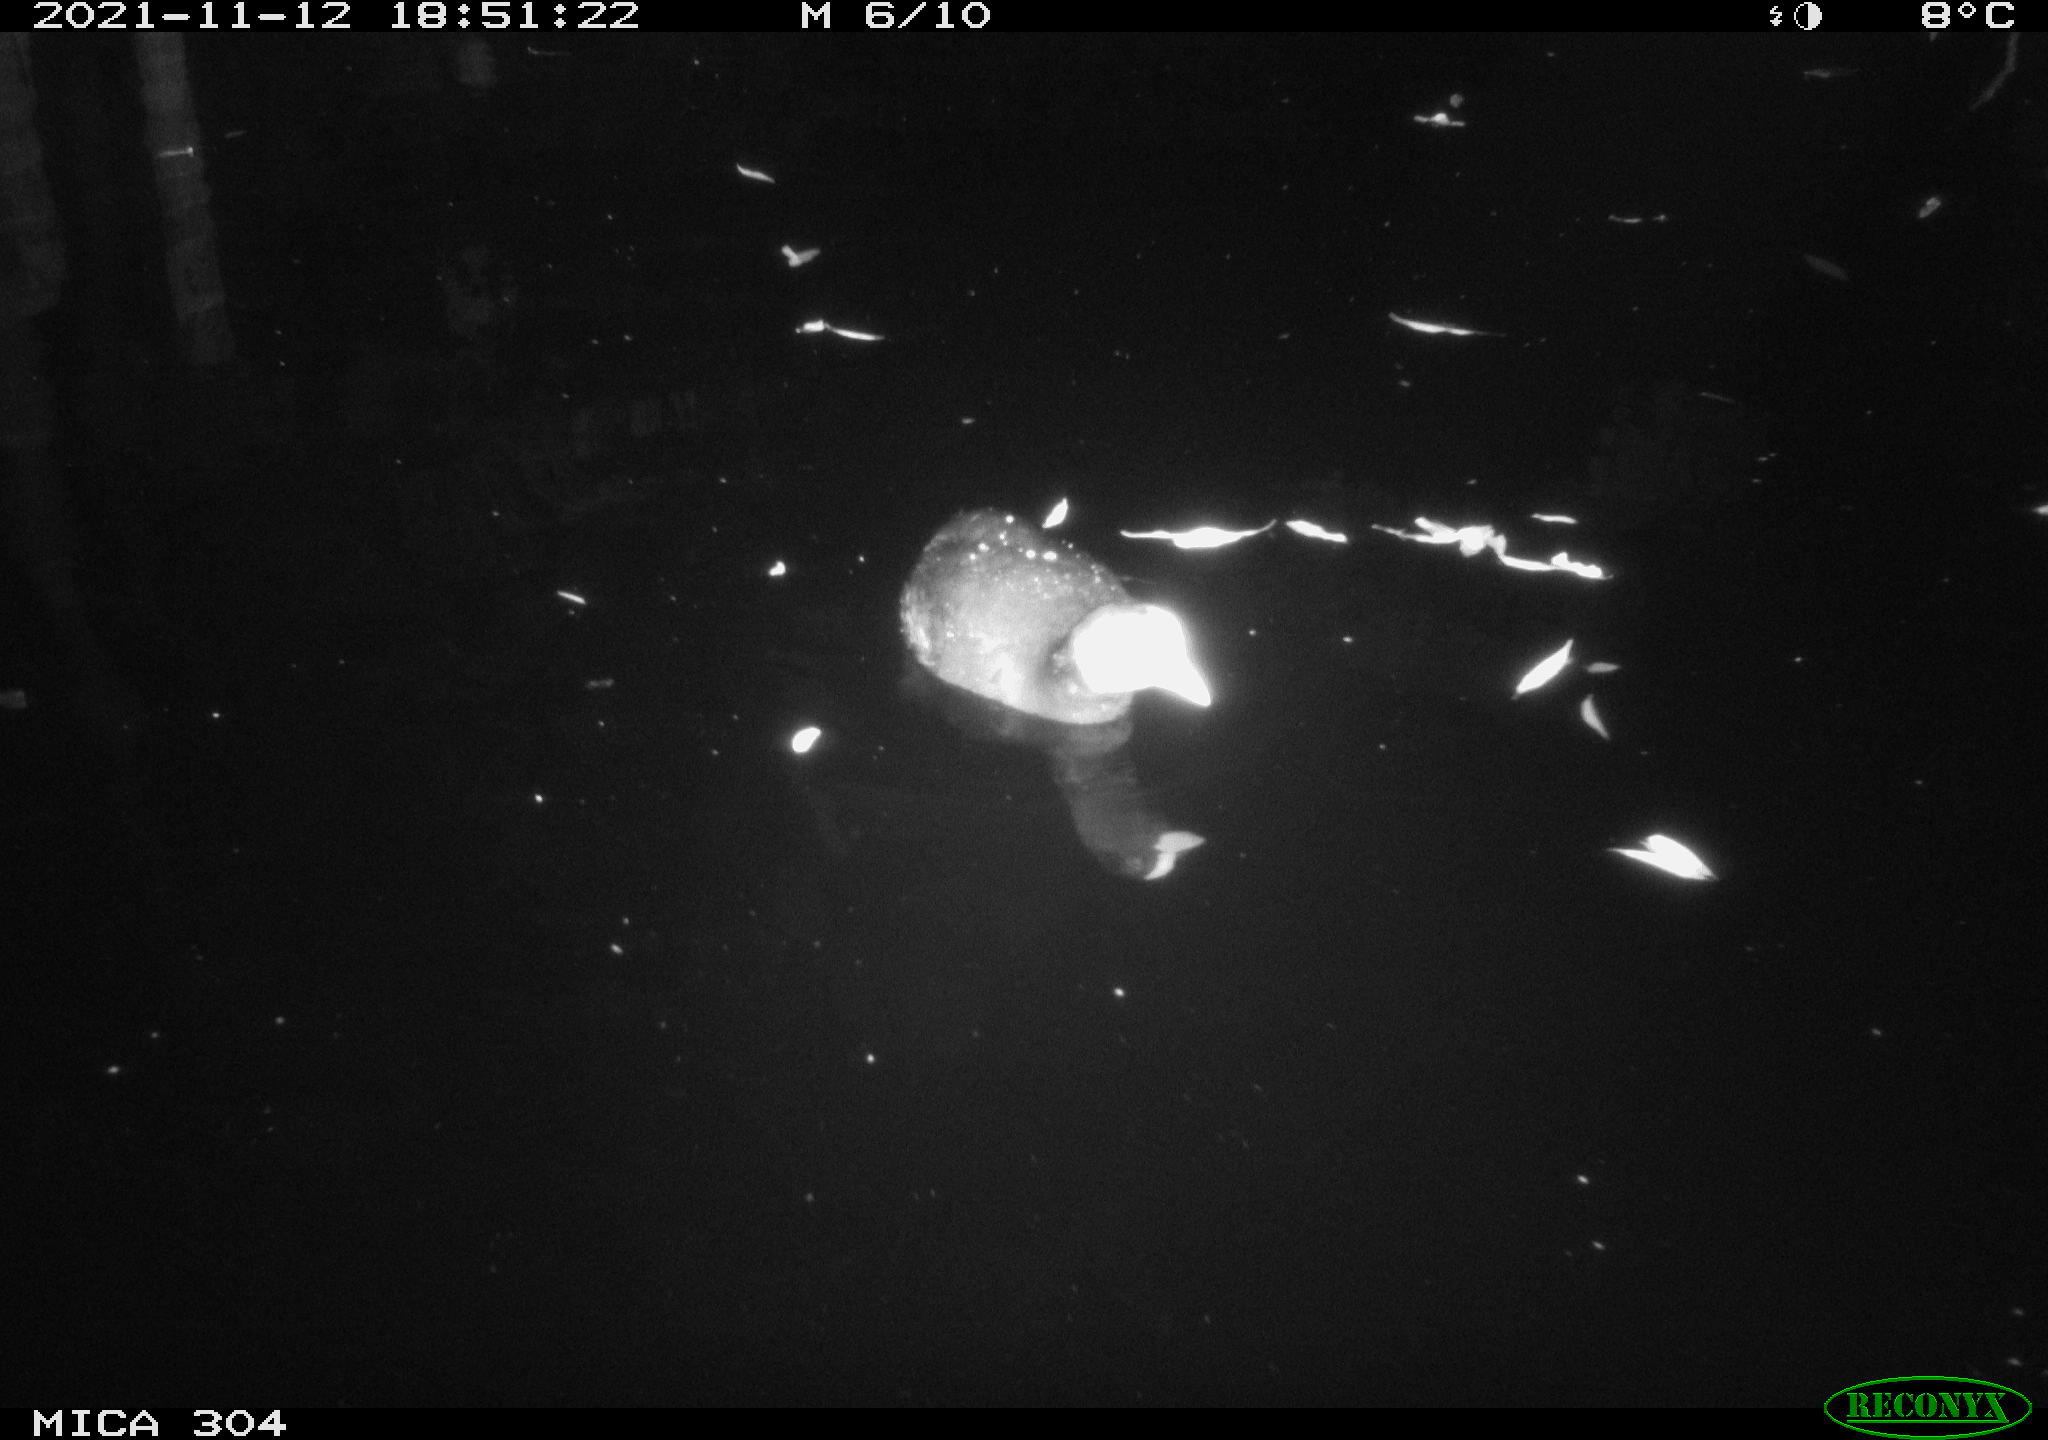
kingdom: Animalia
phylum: Chordata
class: Aves
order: Gruiformes
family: Rallidae
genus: Fulica
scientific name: Fulica atra
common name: Eurasian coot
